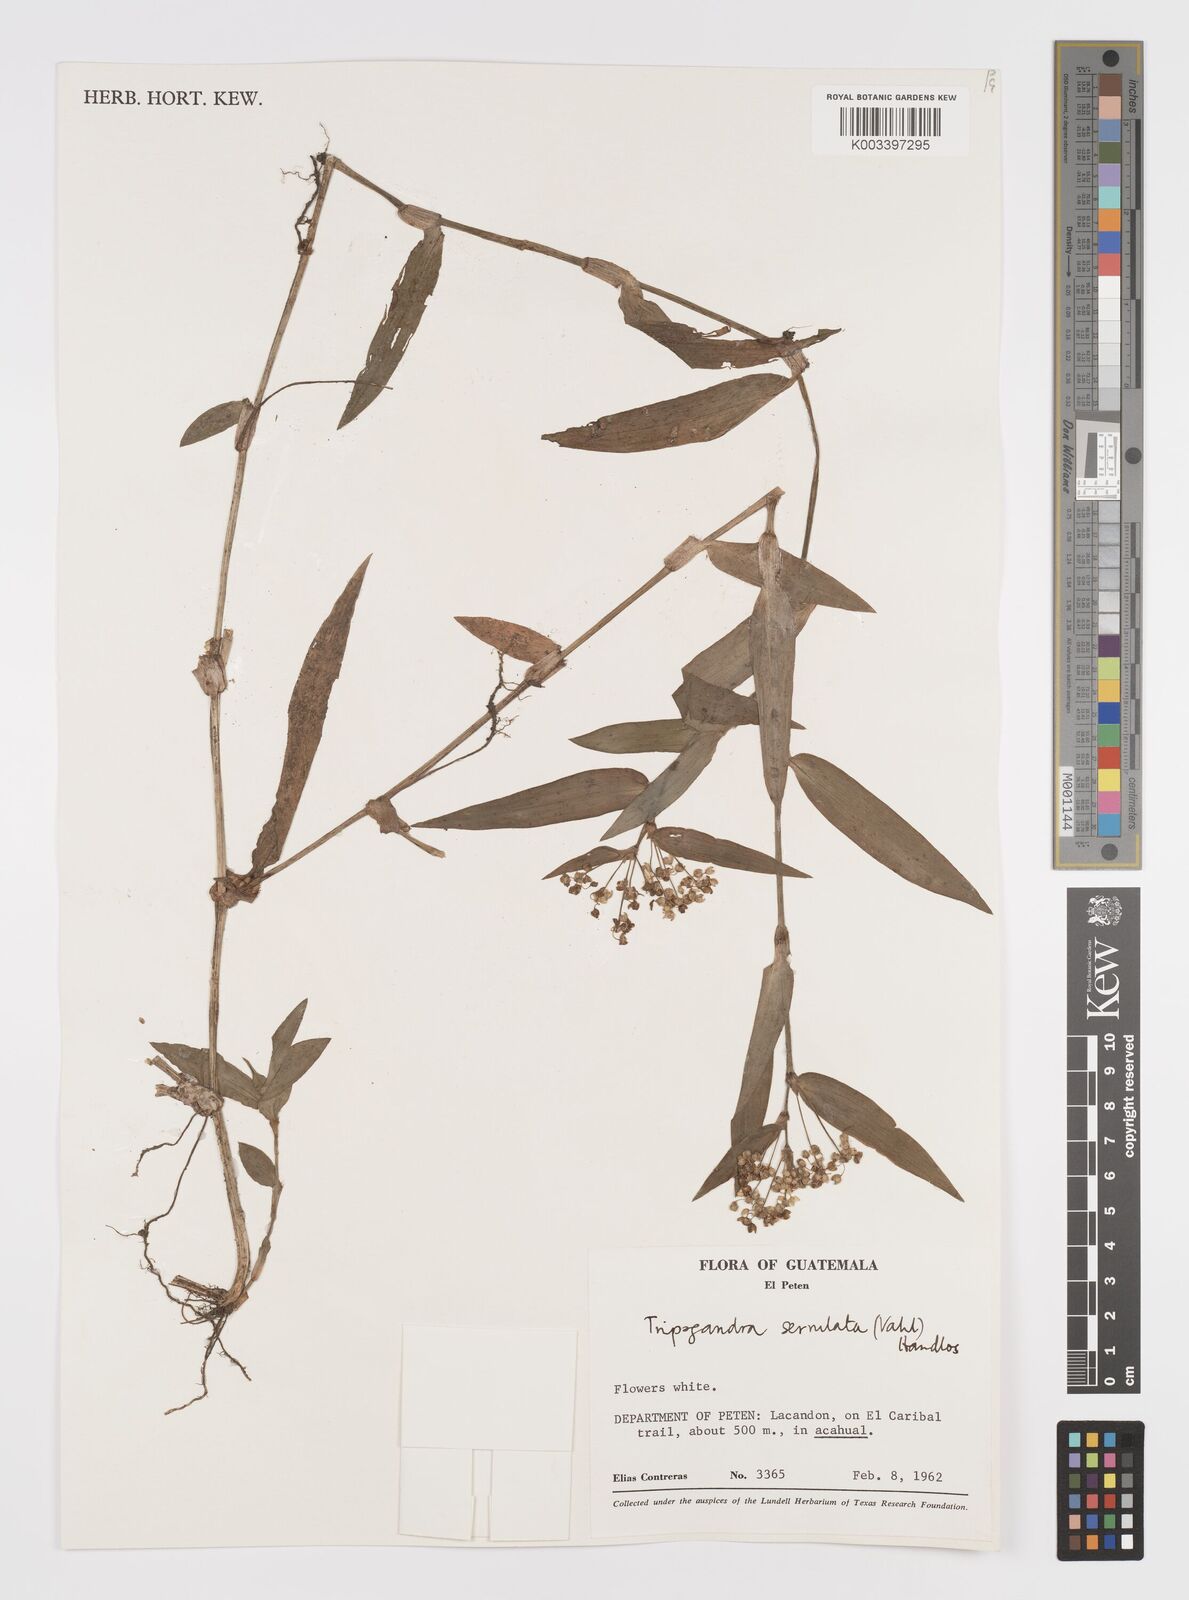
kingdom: Plantae
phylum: Tracheophyta
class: Liliopsida
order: Commelinales
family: Commelinaceae
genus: Callisia
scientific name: Callisia serrulata
